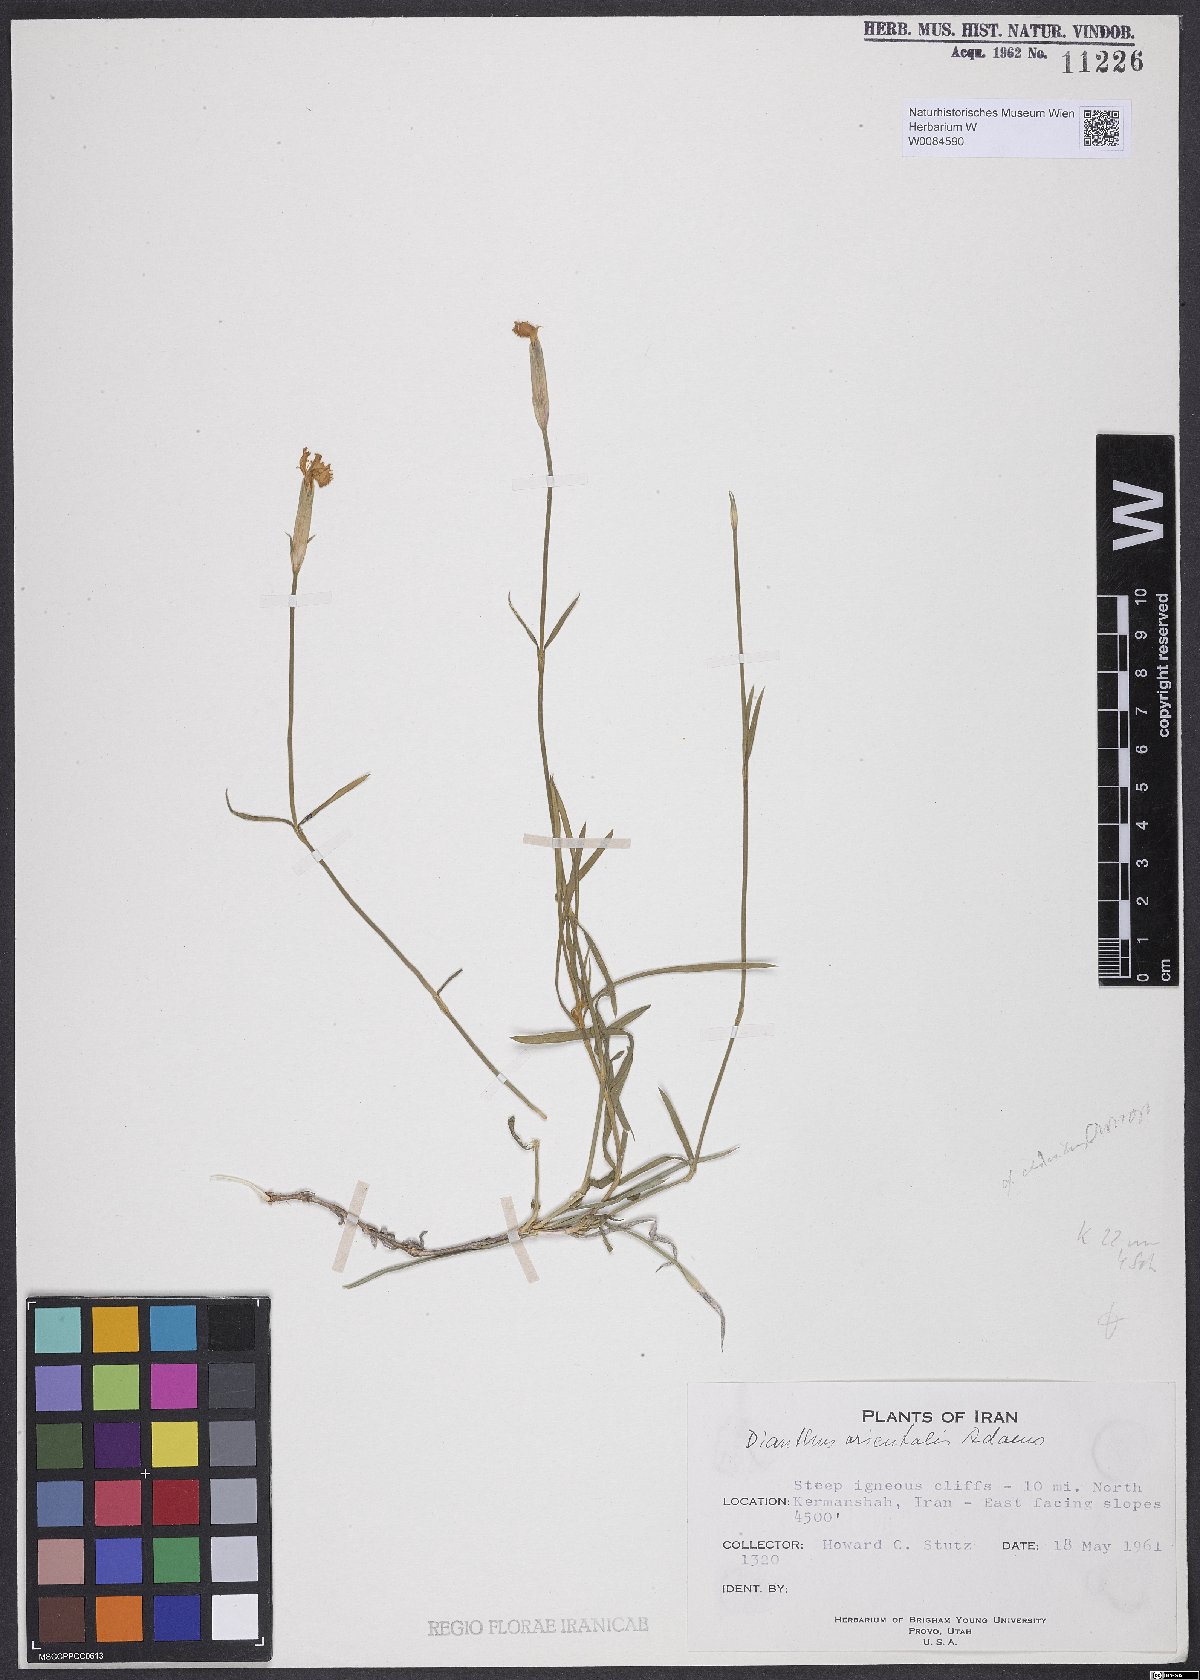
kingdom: Plantae
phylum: Tracheophyta
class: Magnoliopsida
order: Caryophyllales
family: Caryophyllaceae
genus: Dianthus
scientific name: Dianthus orientalis
